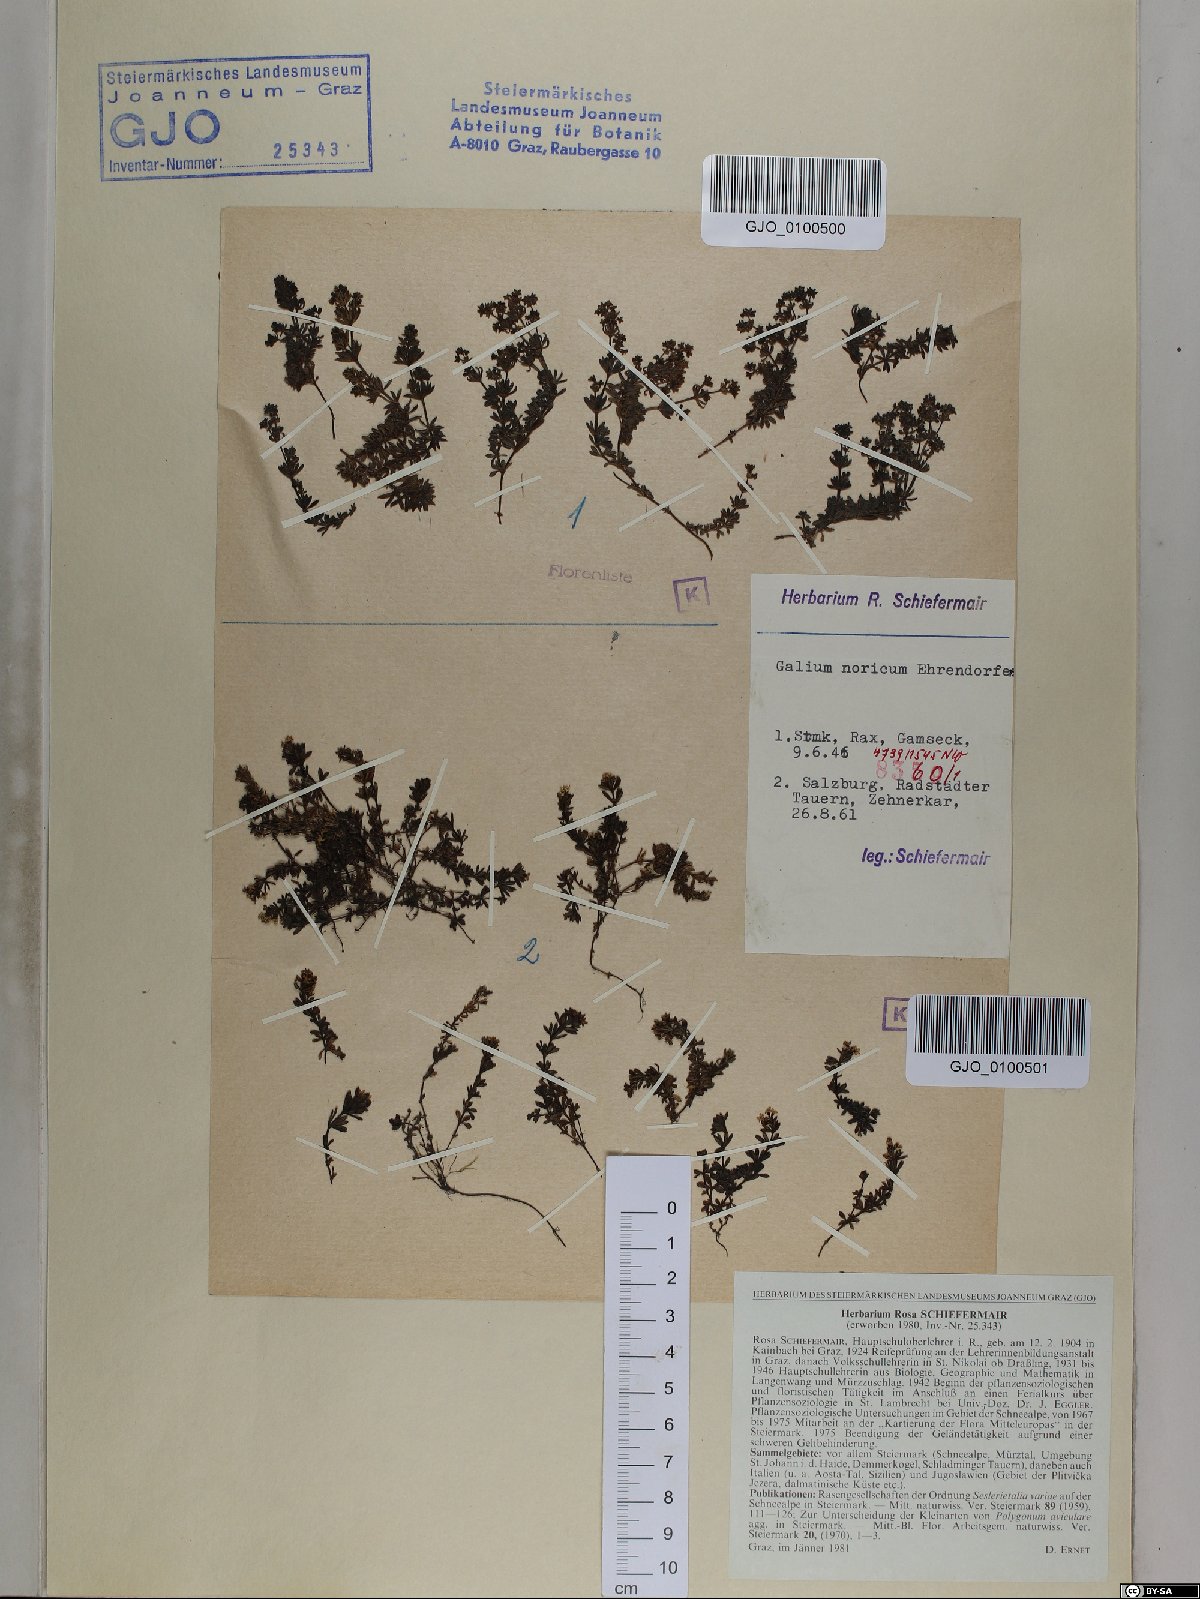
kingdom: Plantae
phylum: Tracheophyta
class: Magnoliopsida
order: Gentianales
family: Rubiaceae
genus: Galium
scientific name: Galium noricum
